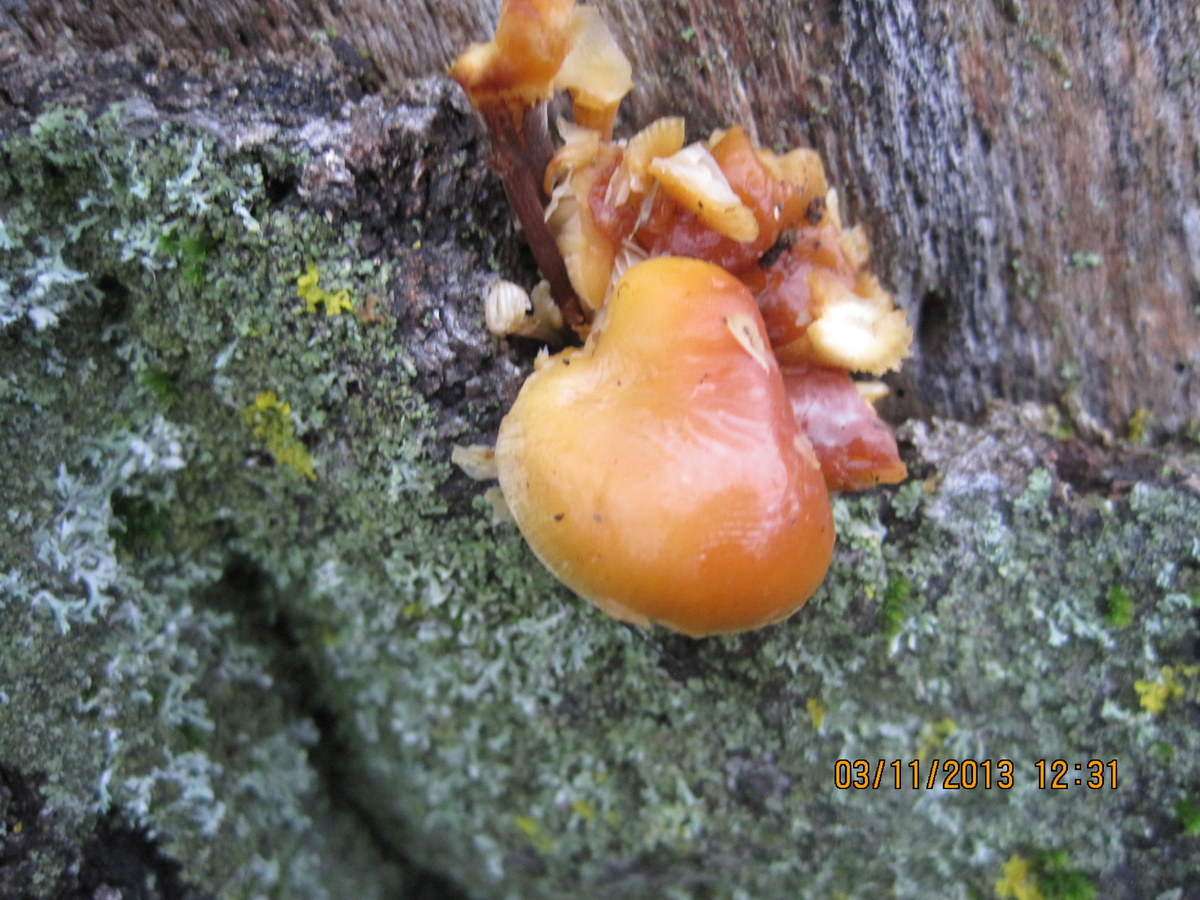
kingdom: Fungi
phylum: Basidiomycota
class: Agaricomycetes
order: Agaricales
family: Physalacriaceae
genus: Flammulina
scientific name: Flammulina velutipes
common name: gul fløjlsfod
